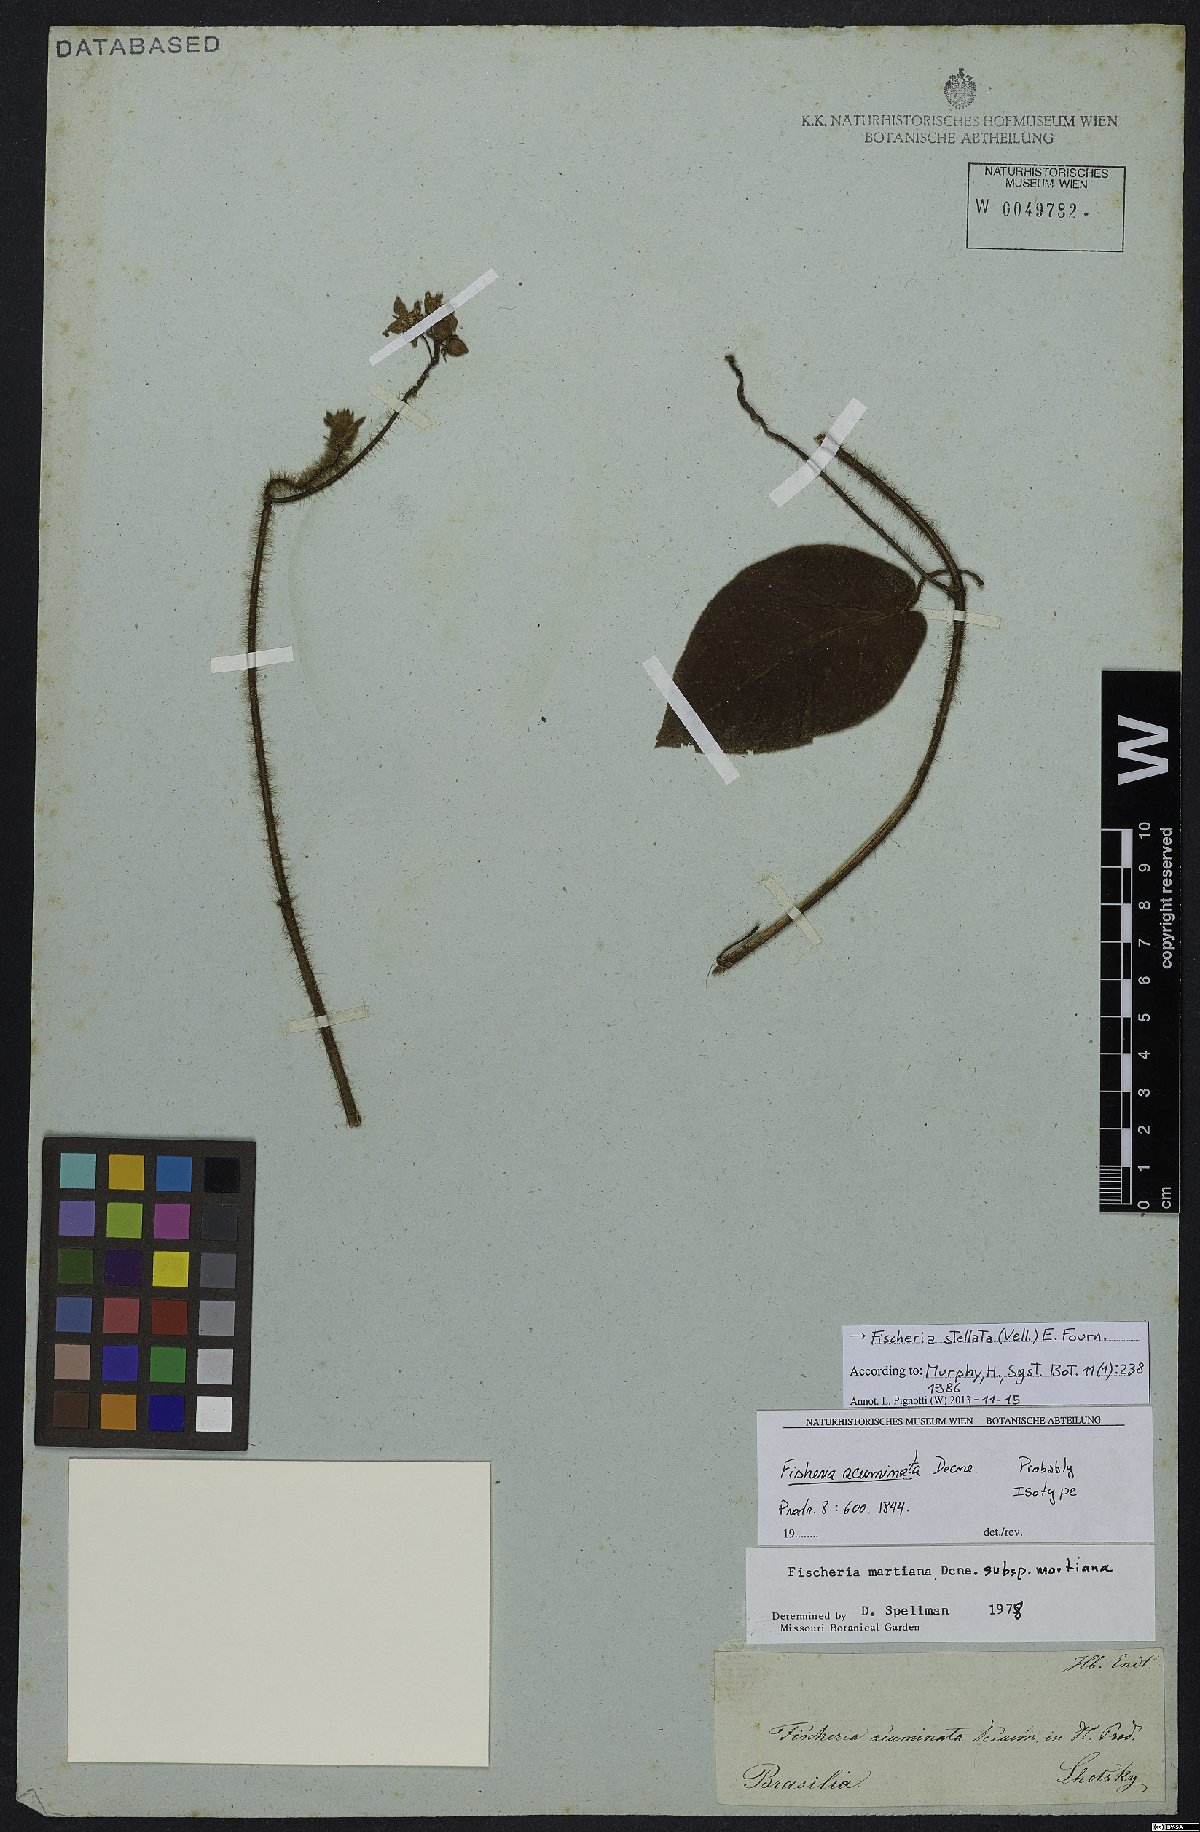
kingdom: Plantae
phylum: Tracheophyta
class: Magnoliopsida
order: Gentianales
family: Apocynaceae
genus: Fischeria
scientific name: Fischeria stellata
